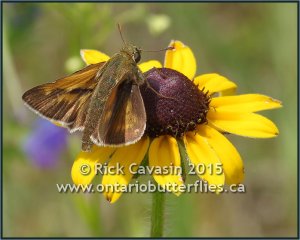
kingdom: Animalia
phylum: Arthropoda
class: Insecta
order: Lepidoptera
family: Hesperiidae
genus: Polites
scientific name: Polites
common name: Crossline Skipper
